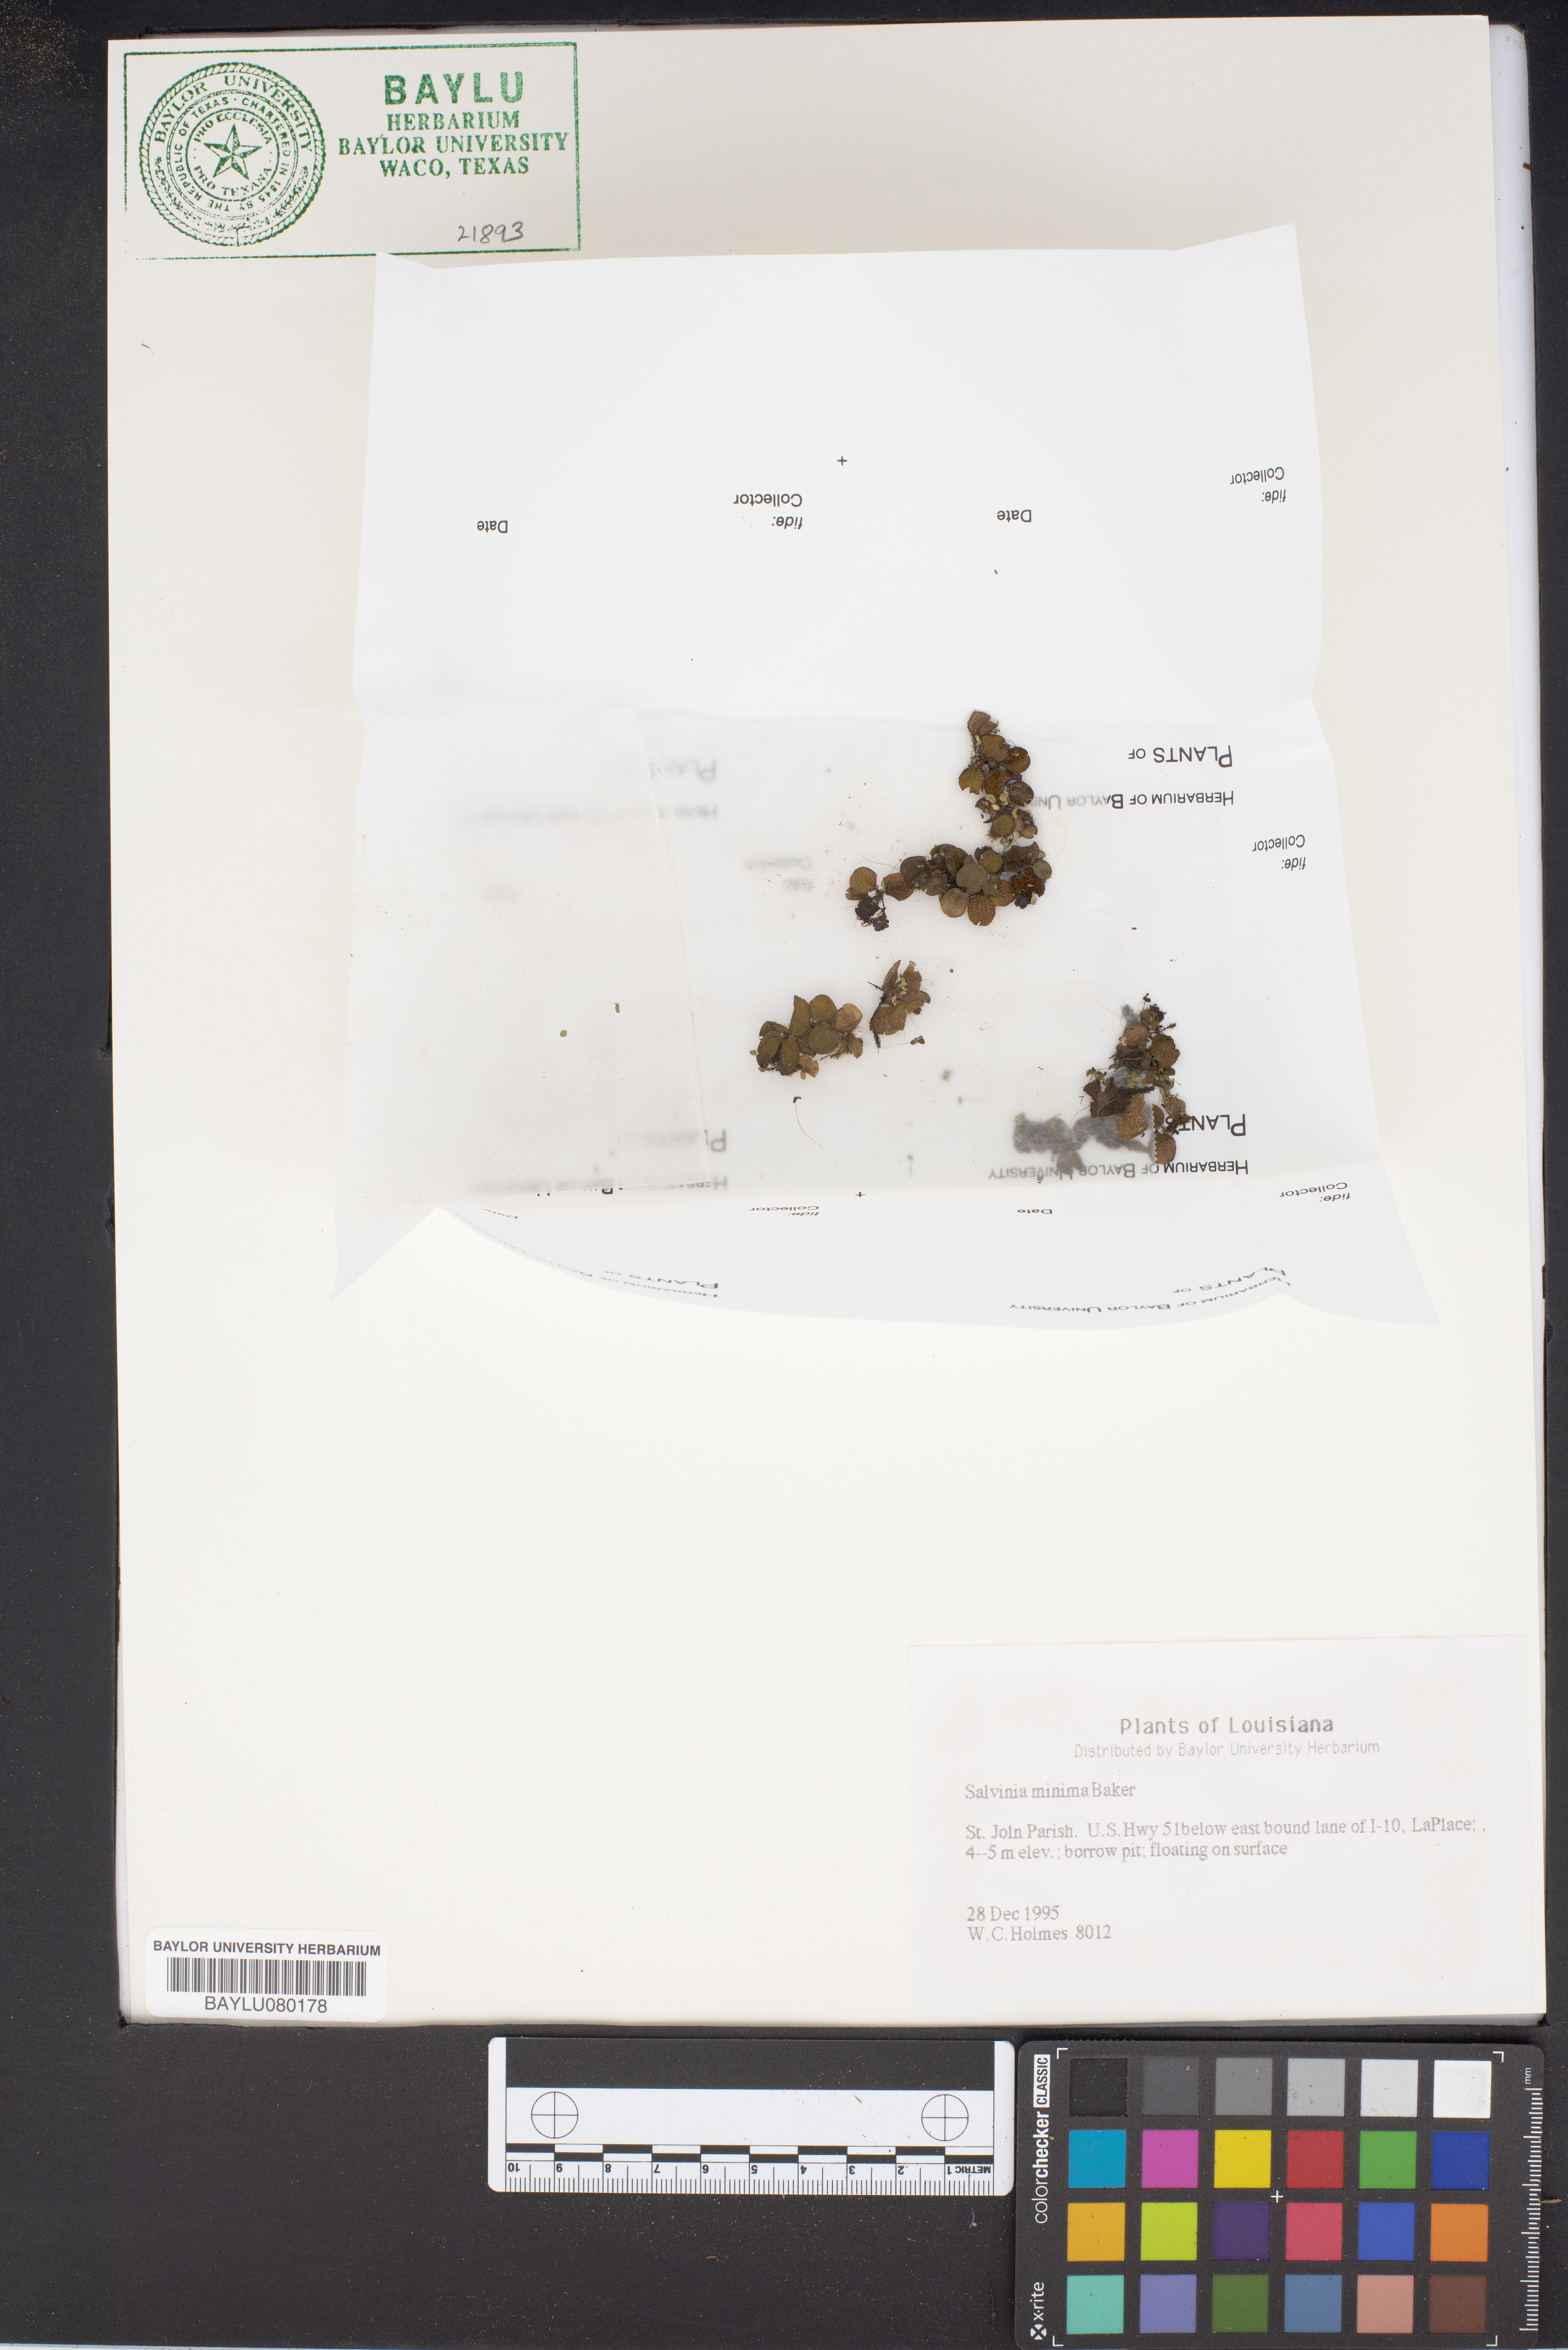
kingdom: Plantae
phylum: Tracheophyta
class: Polypodiopsida
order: Salviniales
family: Salviniaceae
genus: Salvinia
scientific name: Salvinia minima
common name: Water spangles
